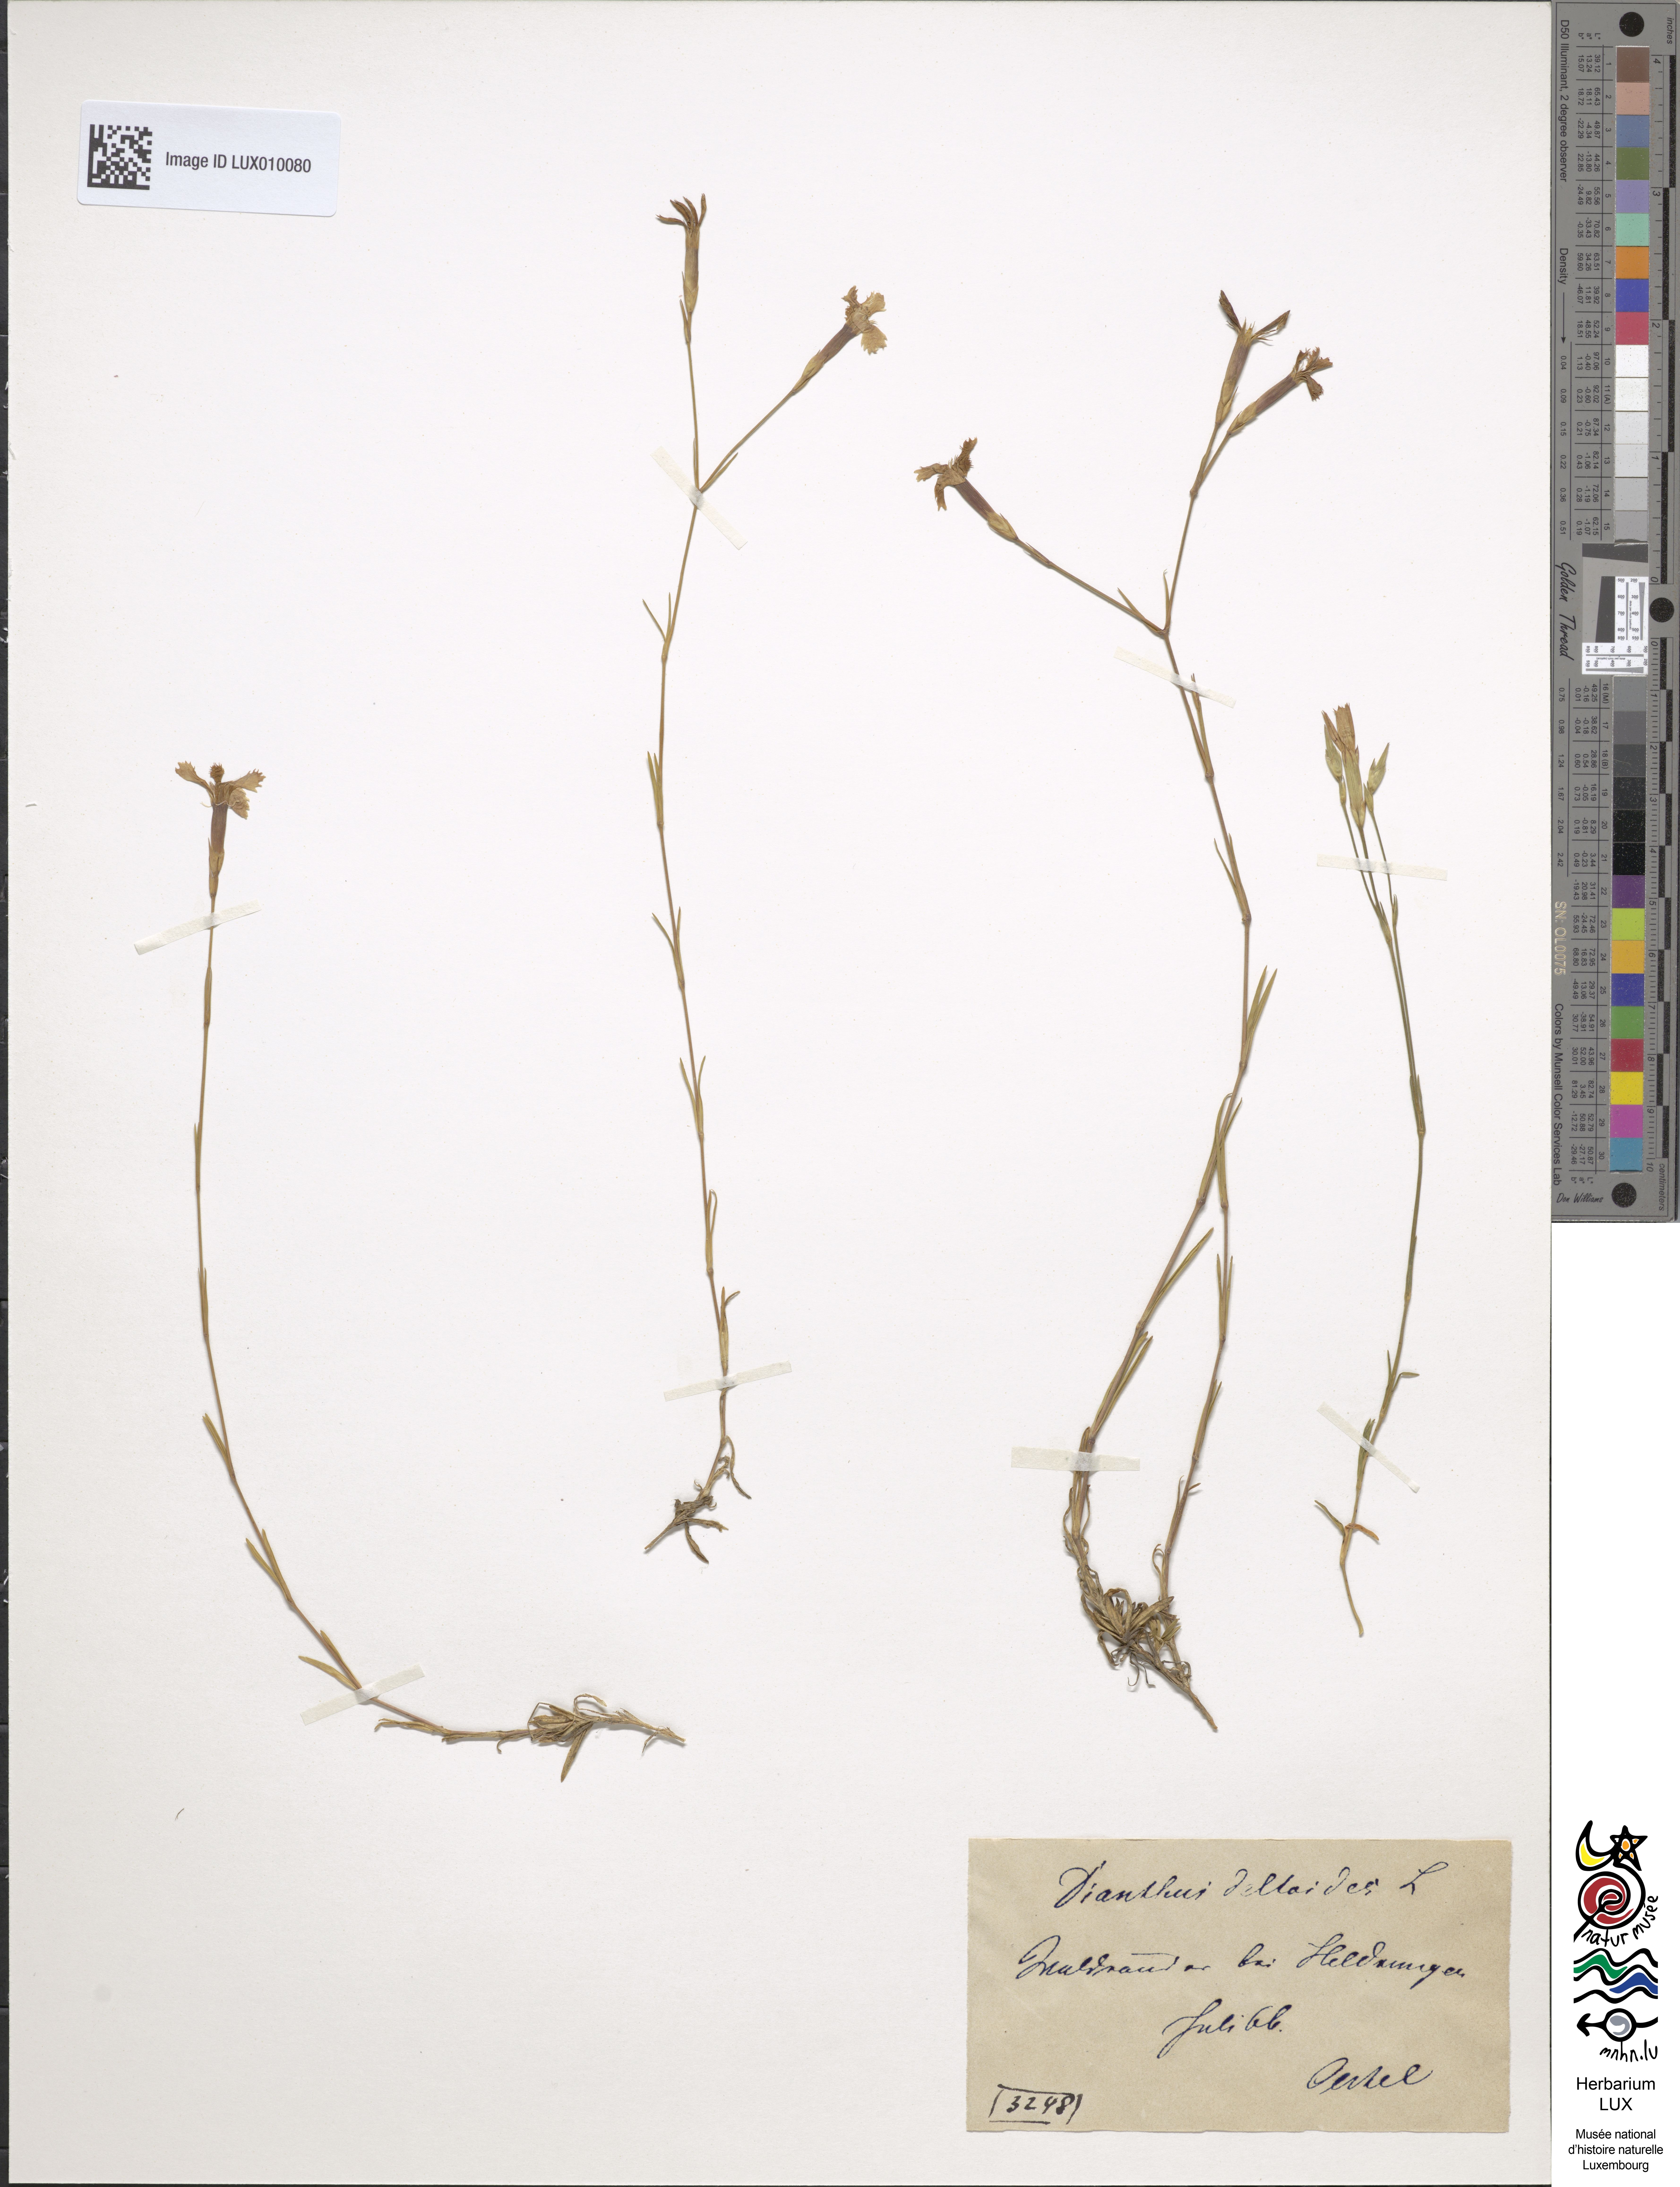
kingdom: Plantae
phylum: Tracheophyta
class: Magnoliopsida
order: Caryophyllales
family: Caryophyllaceae
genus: Dianthus
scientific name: Dianthus deltoides
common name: Maiden pink
